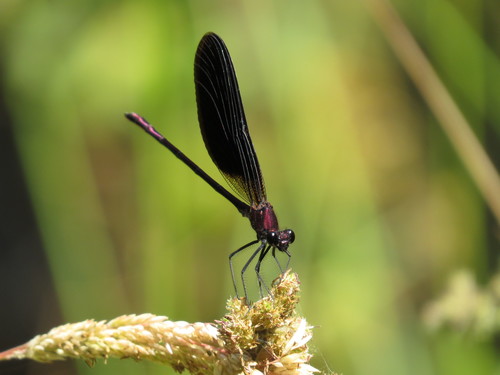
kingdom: Animalia
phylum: Arthropoda
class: Insecta
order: Odonata
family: Calopterygidae
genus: Calopteryx
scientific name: Calopteryx haemorrhoidalis
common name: Copper demoiselle
